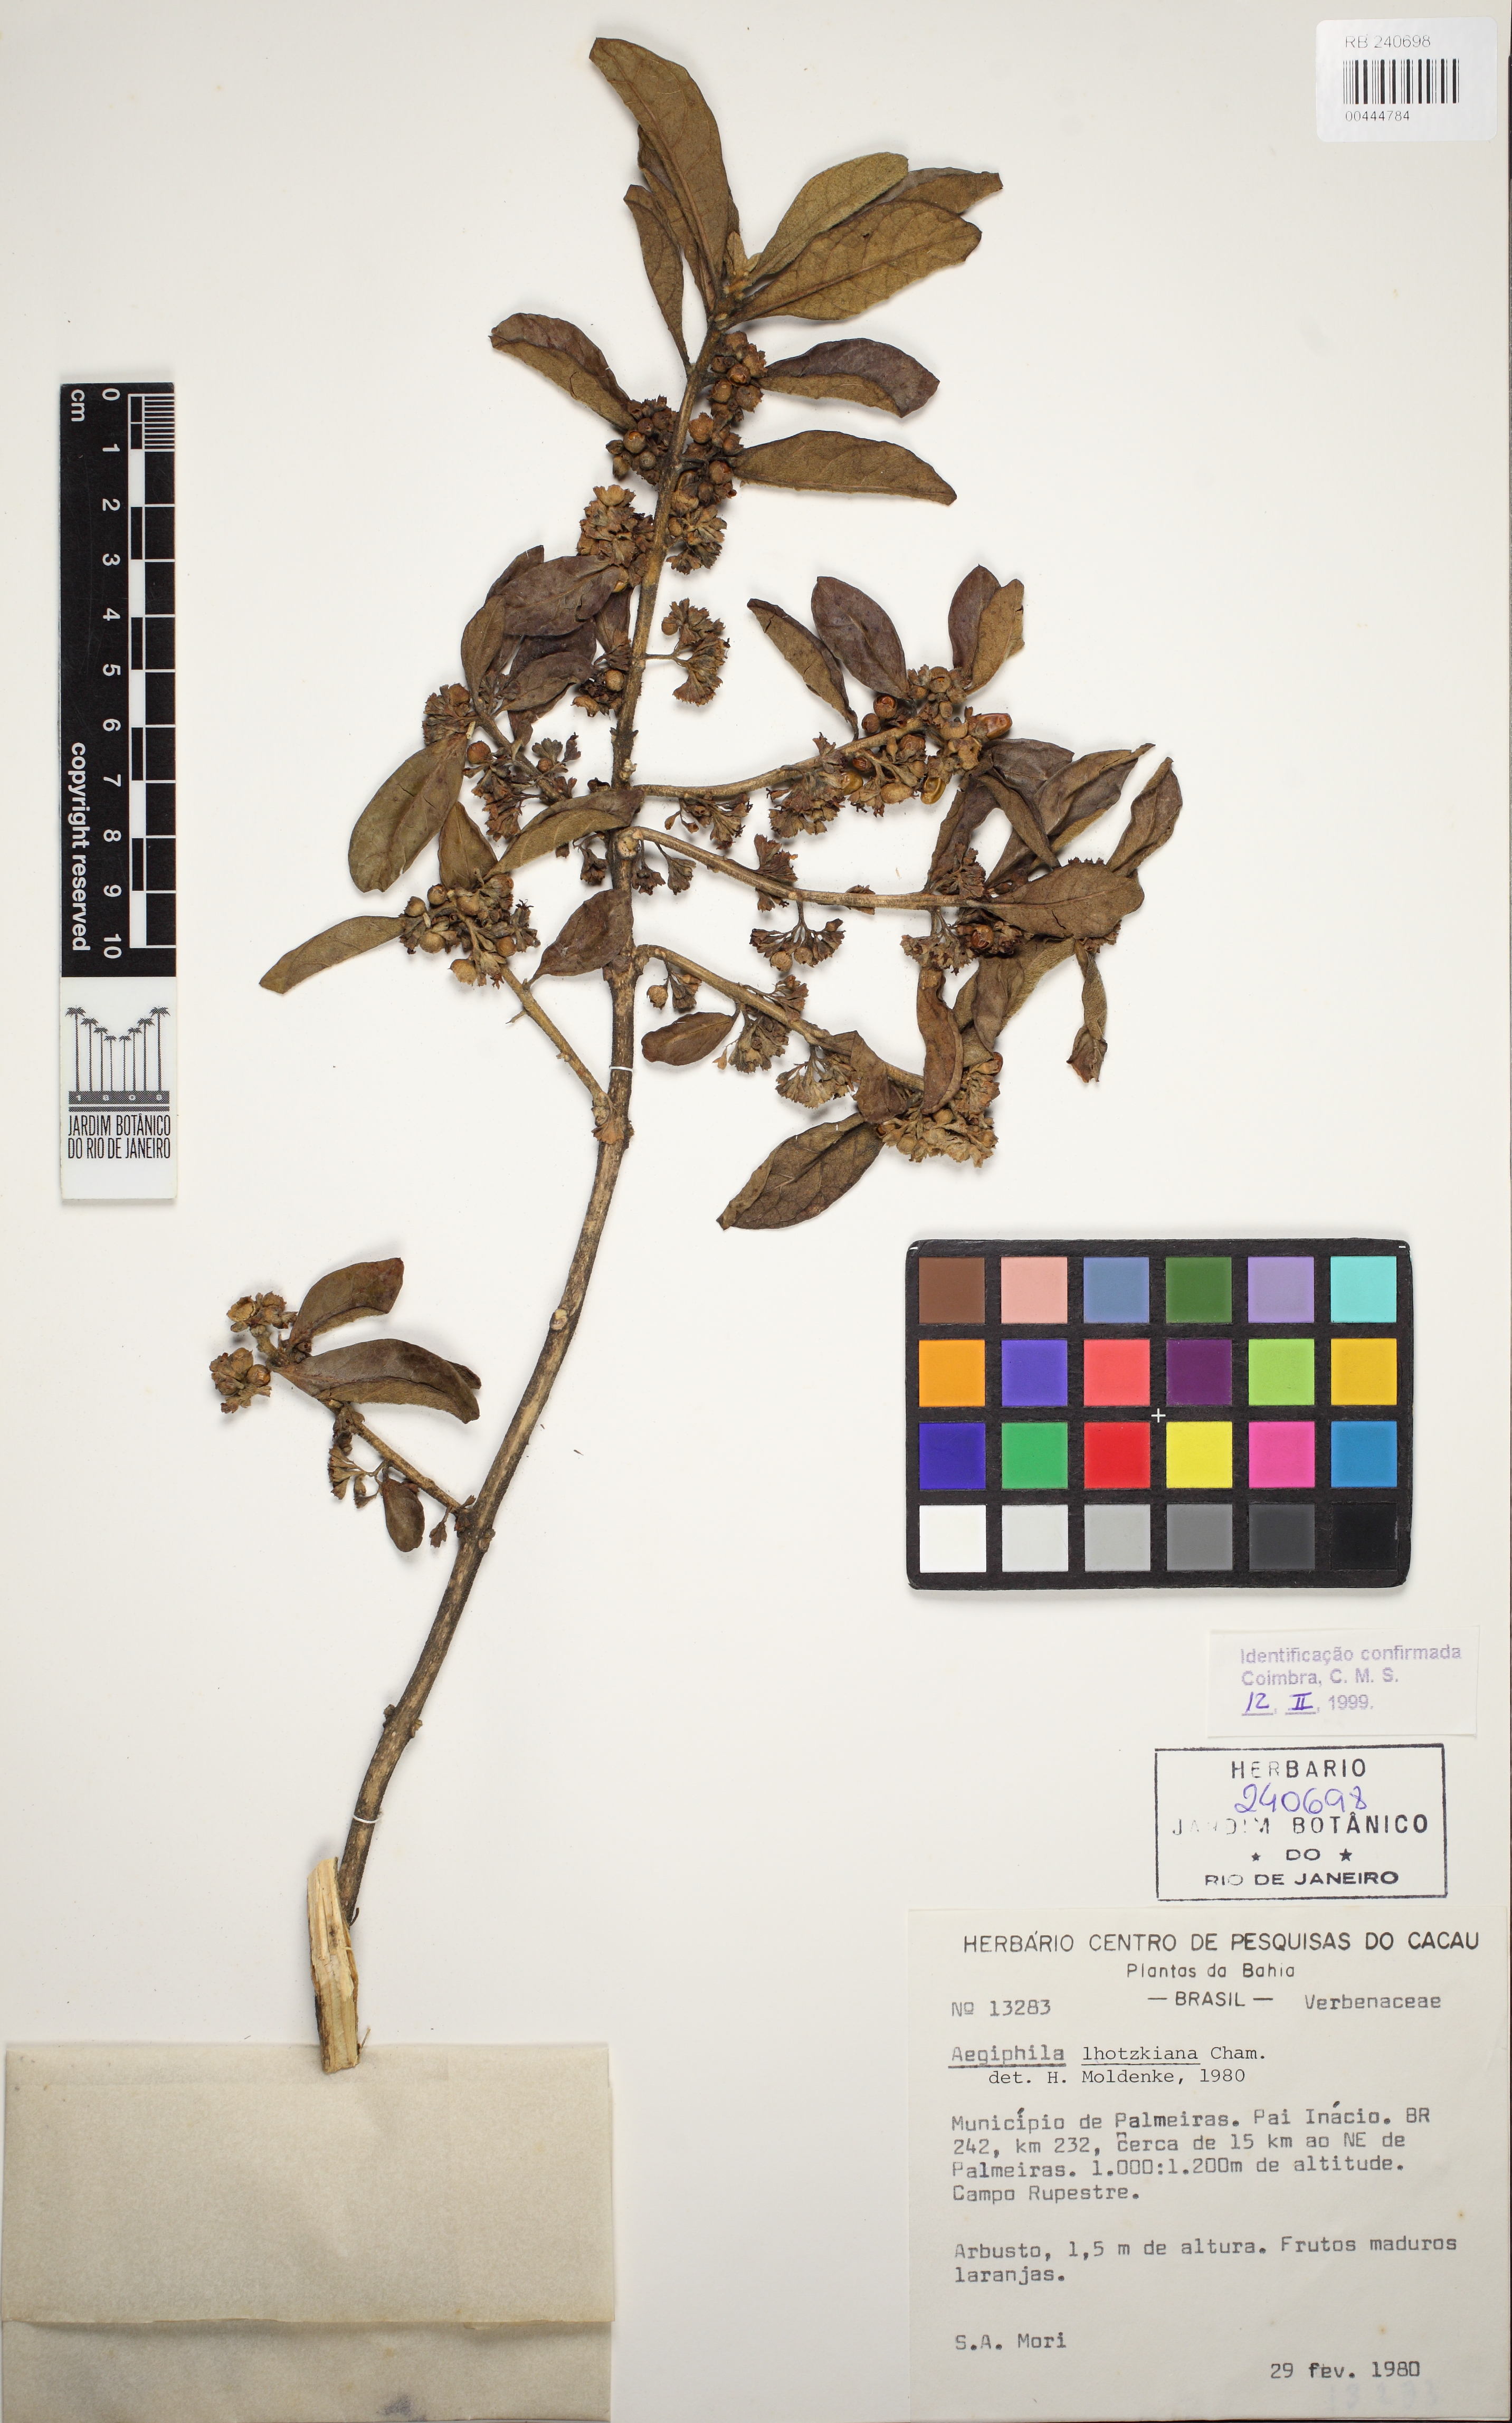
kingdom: Plantae
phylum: Tracheophyta
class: Magnoliopsida
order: Lamiales
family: Lamiaceae
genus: Aegiphila
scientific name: Aegiphila lhotskiana
